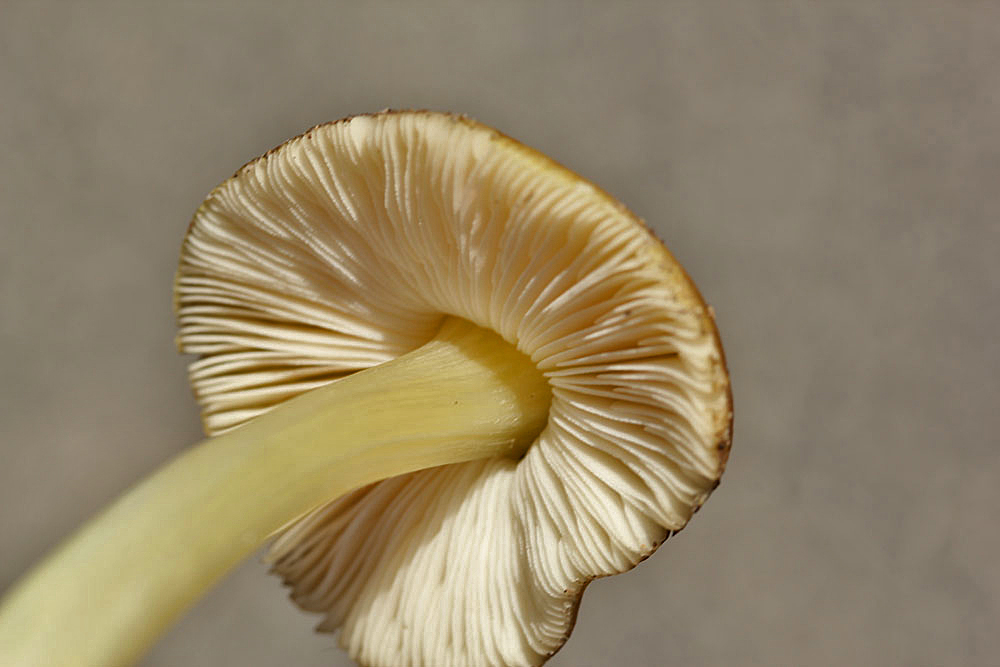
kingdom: Fungi
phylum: Basidiomycota
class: Agaricomycetes
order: Agaricales
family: Pluteaceae
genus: Pluteus
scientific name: Pluteus romellii
